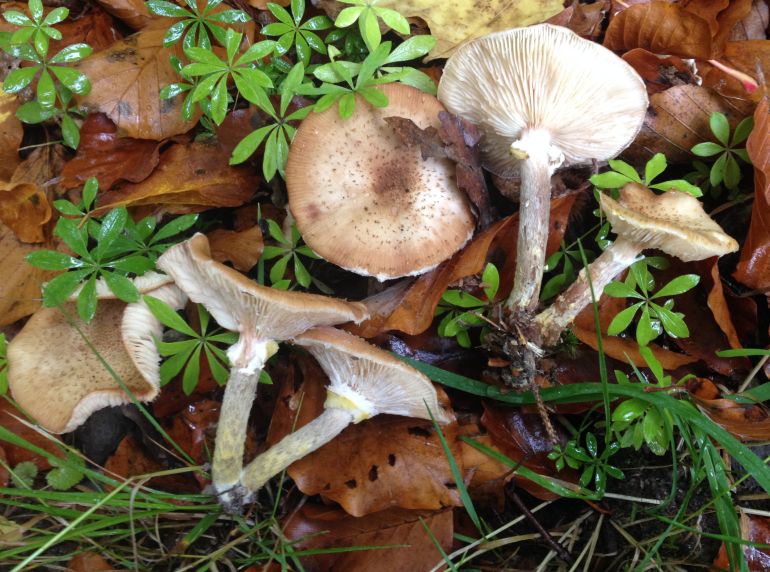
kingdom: Fungi
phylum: Basidiomycota
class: Agaricomycetes
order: Agaricales
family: Physalacriaceae
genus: Armillaria
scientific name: Armillaria lutea
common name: køllestokket honningsvamp
